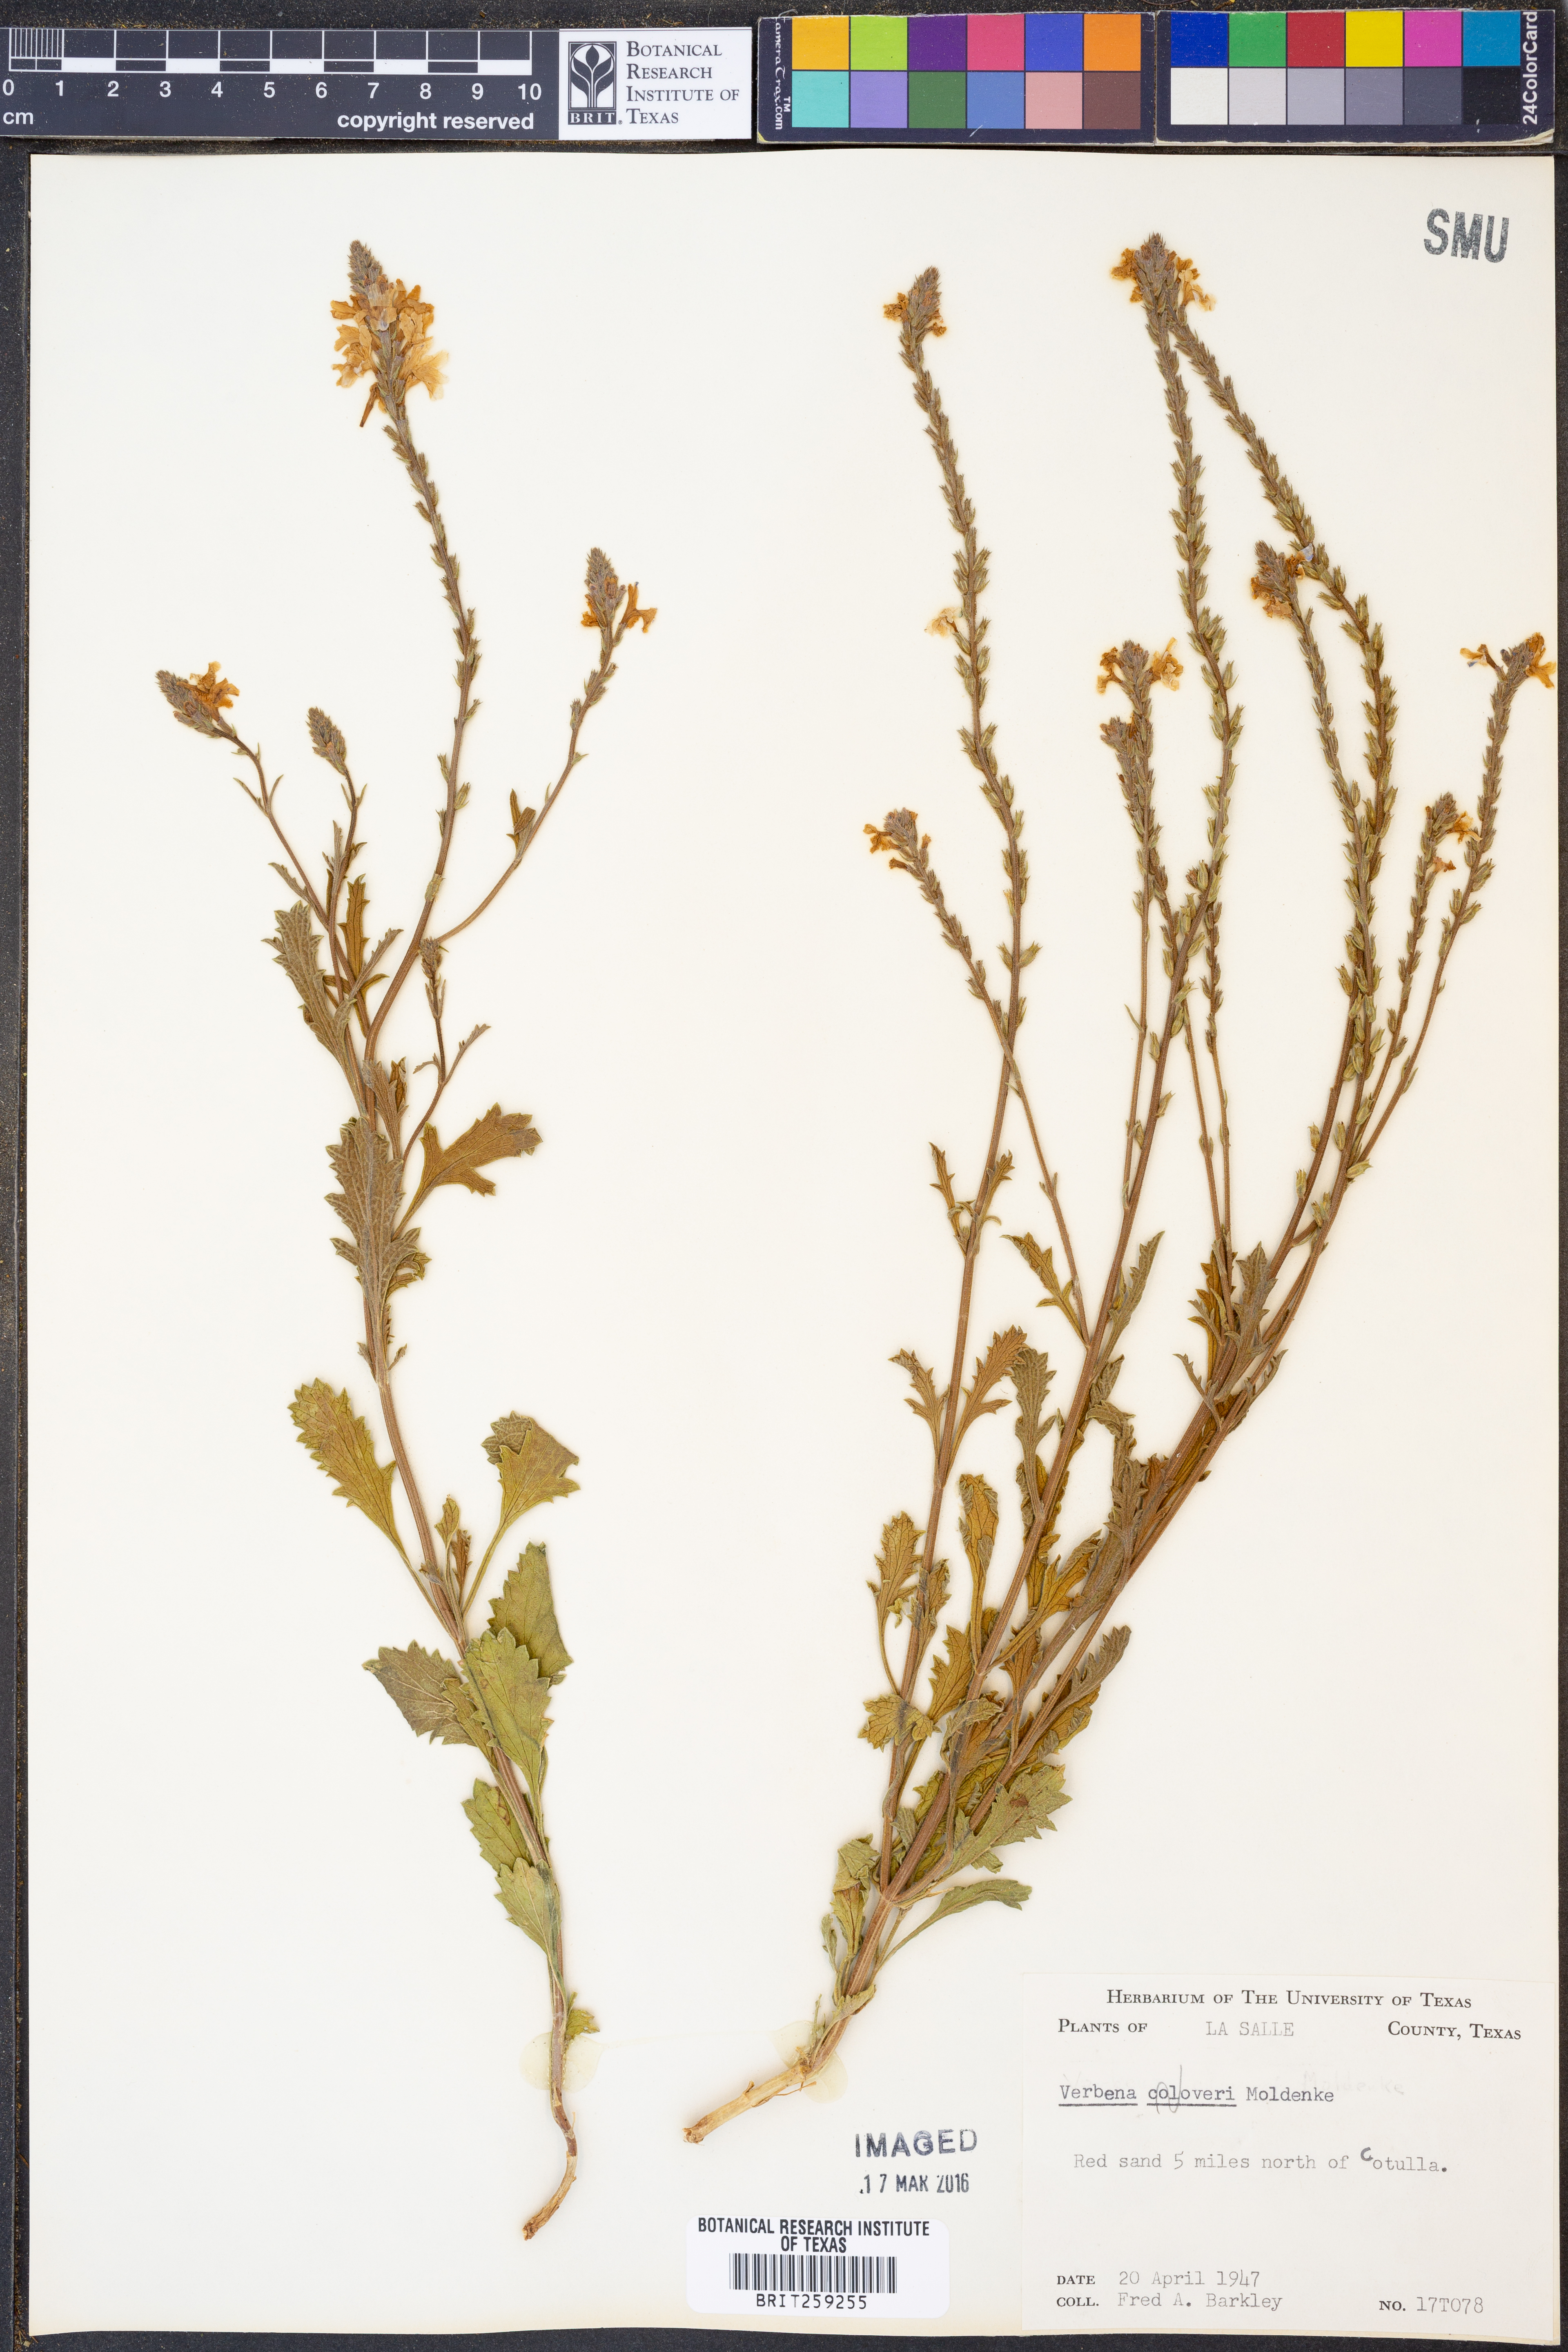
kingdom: Plantae
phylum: Tracheophyta
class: Magnoliopsida
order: Lamiales
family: Verbenaceae
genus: Verbena
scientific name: Verbena cloveri
